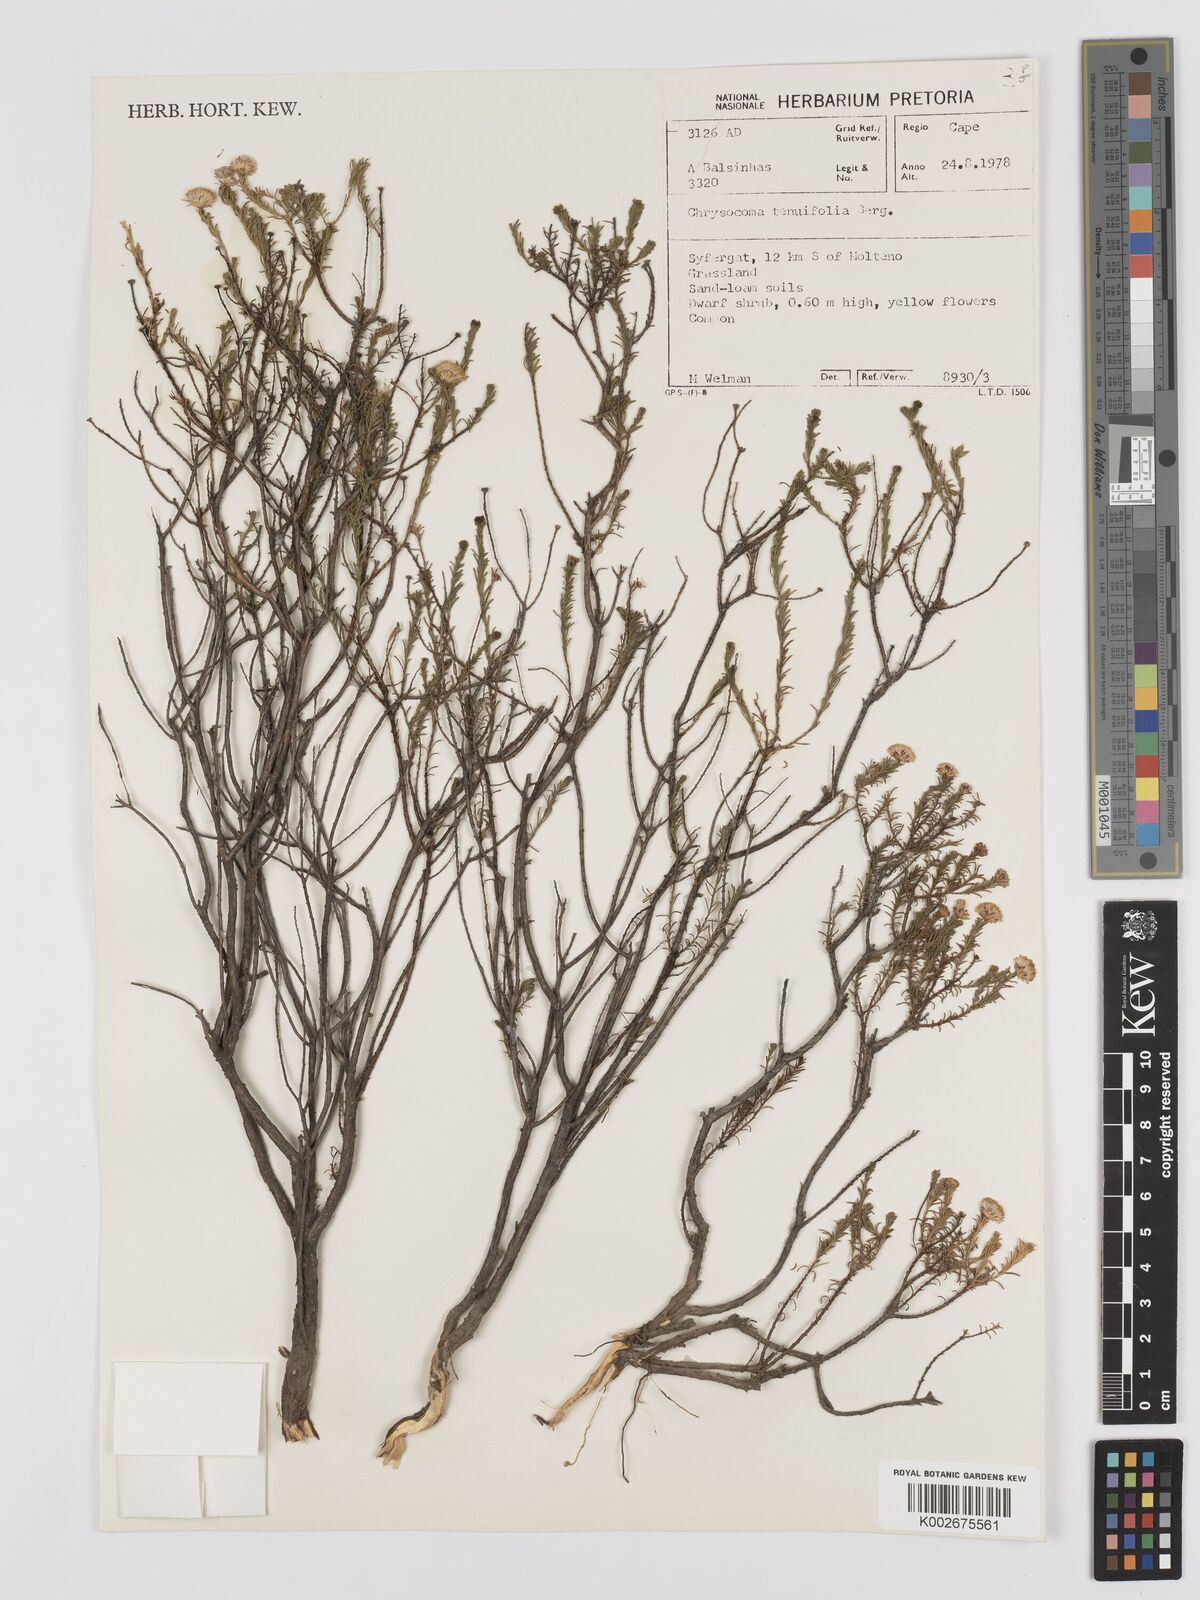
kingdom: Plantae
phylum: Tracheophyta
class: Magnoliopsida
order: Asterales
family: Asteraceae
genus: Chrysocoma
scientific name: Chrysocoma ciliata
